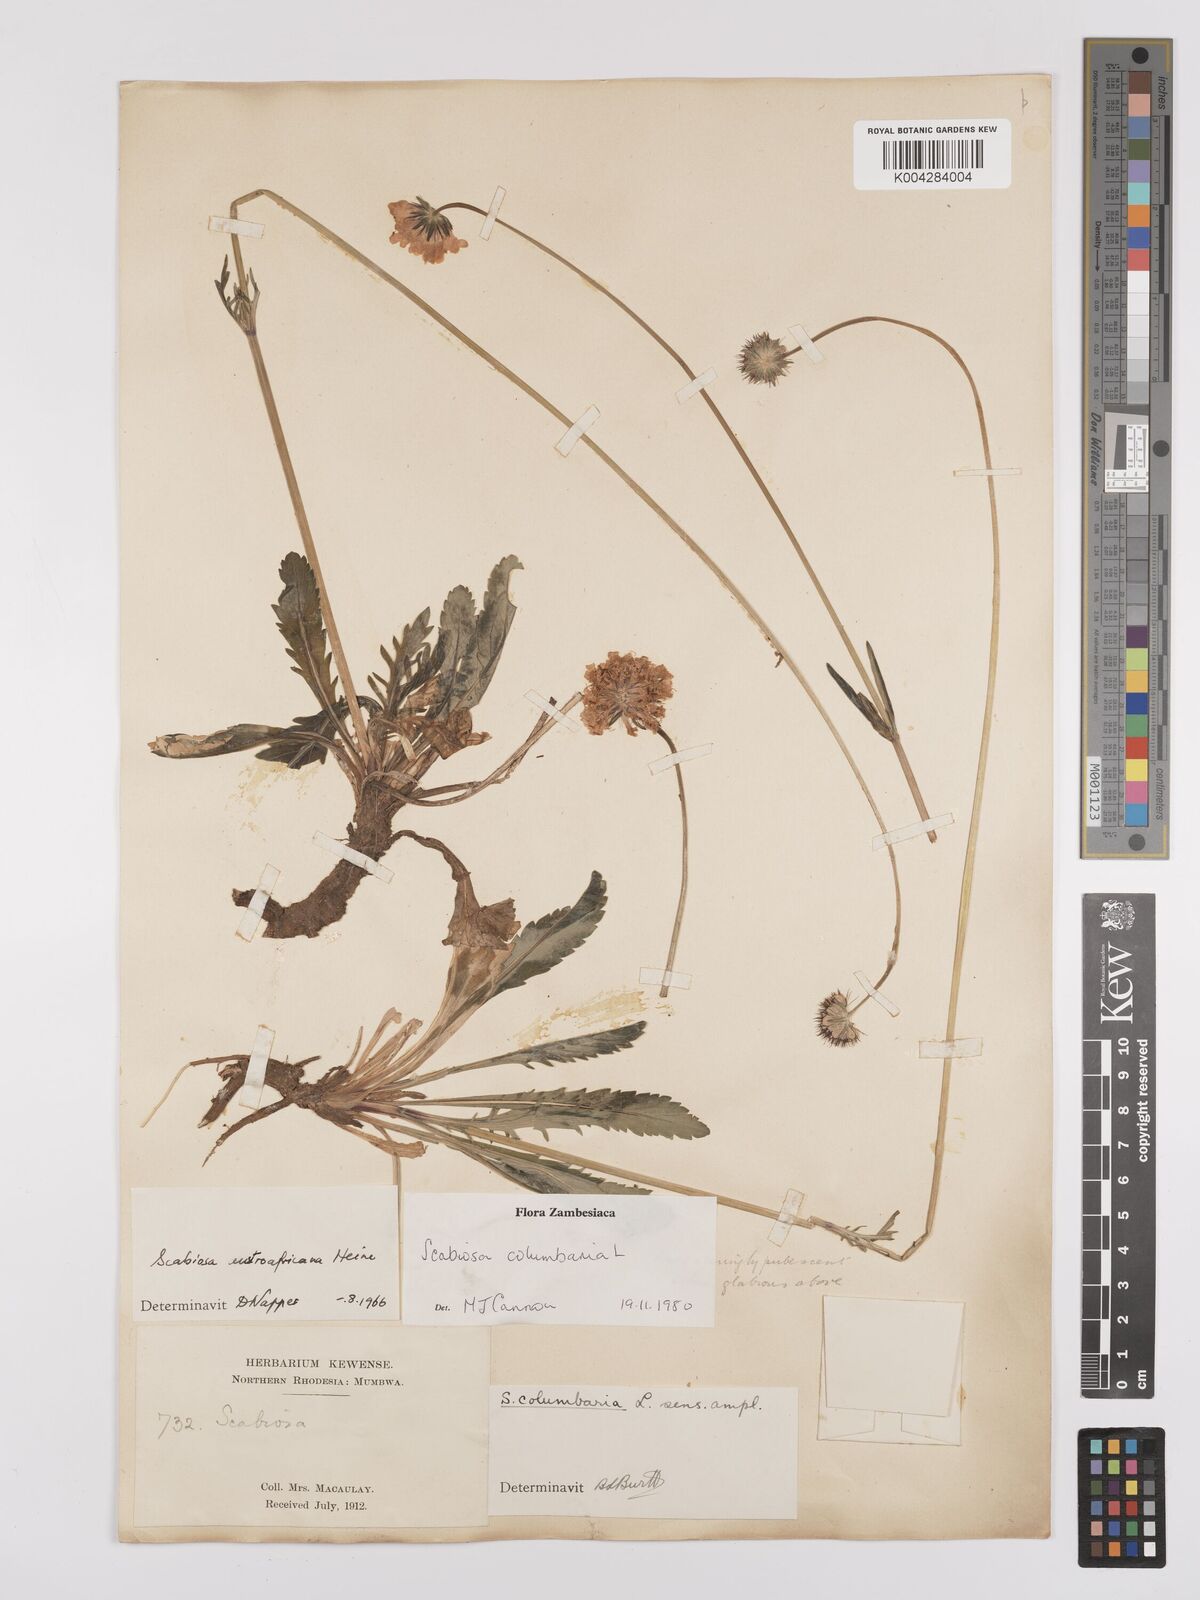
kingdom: Plantae
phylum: Tracheophyta
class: Magnoliopsida
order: Dipsacales
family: Caprifoliaceae
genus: Scabiosa
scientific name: Scabiosa austroafricana
